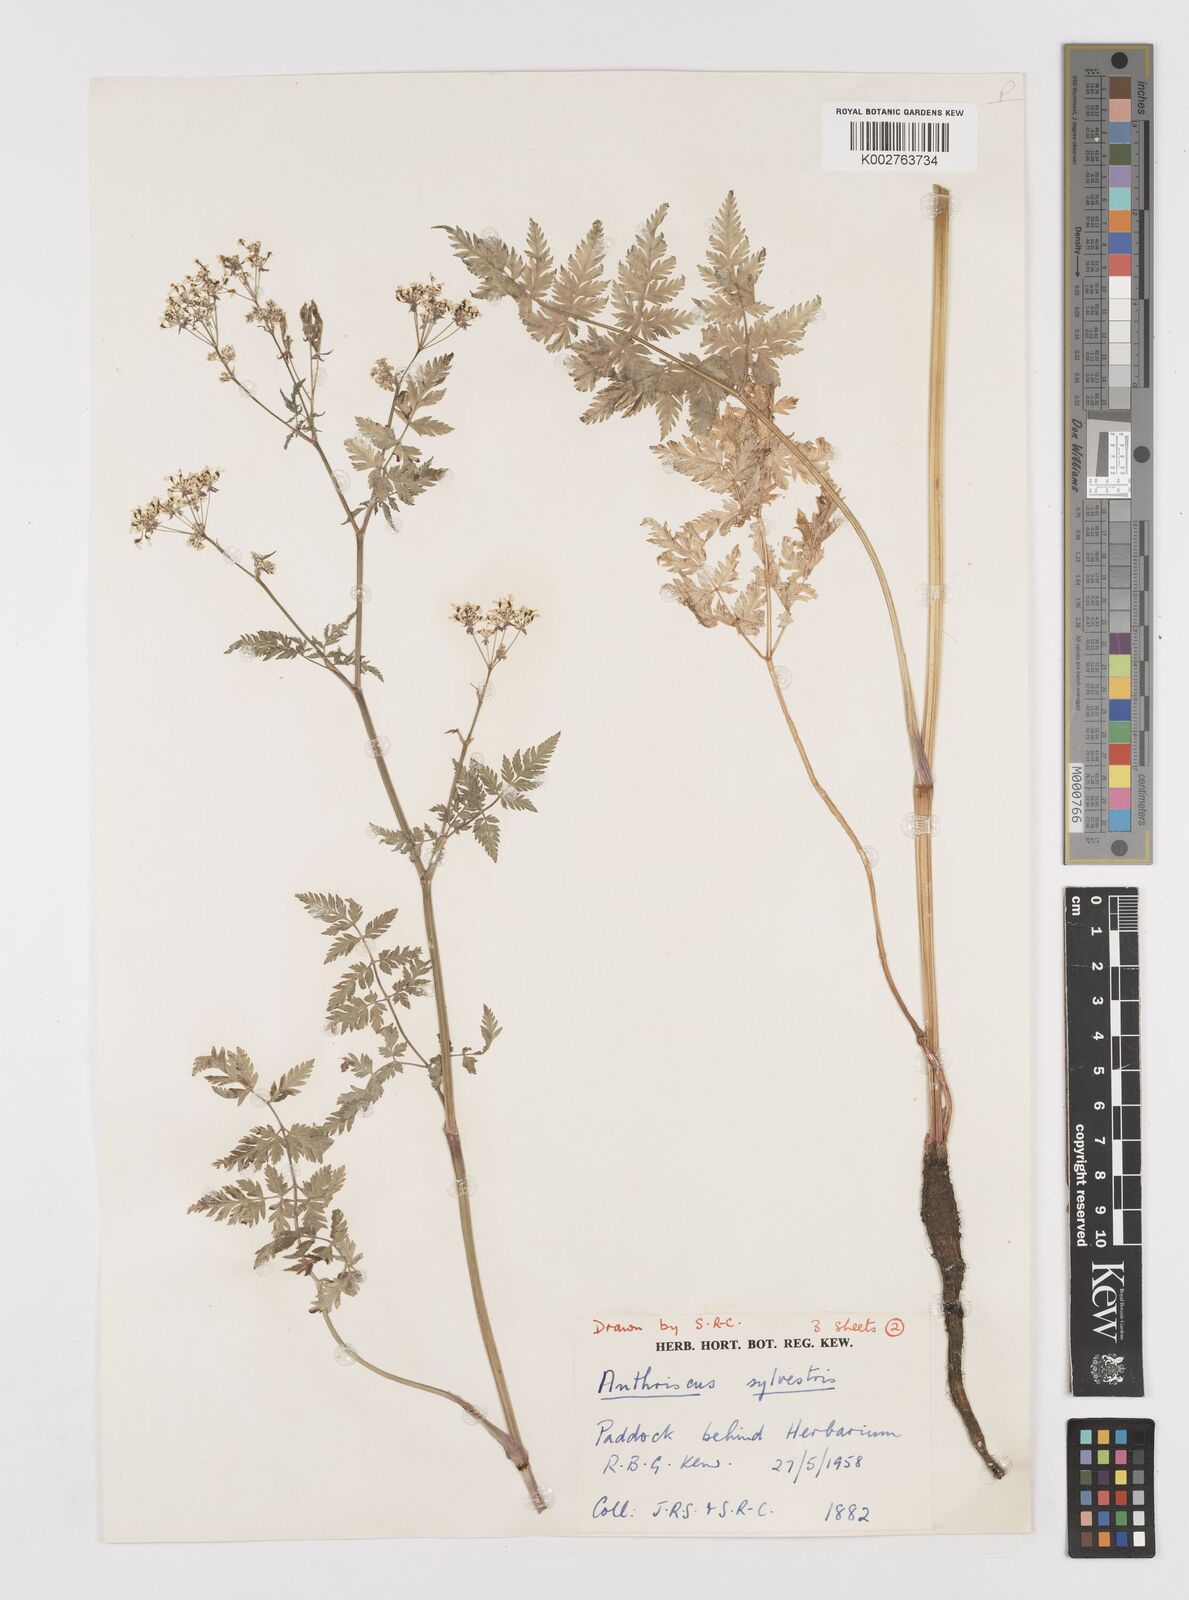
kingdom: Plantae
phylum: Tracheophyta
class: Magnoliopsida
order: Apiales
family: Apiaceae
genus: Anthriscus
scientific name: Anthriscus sylvestris
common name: Cow parsley
